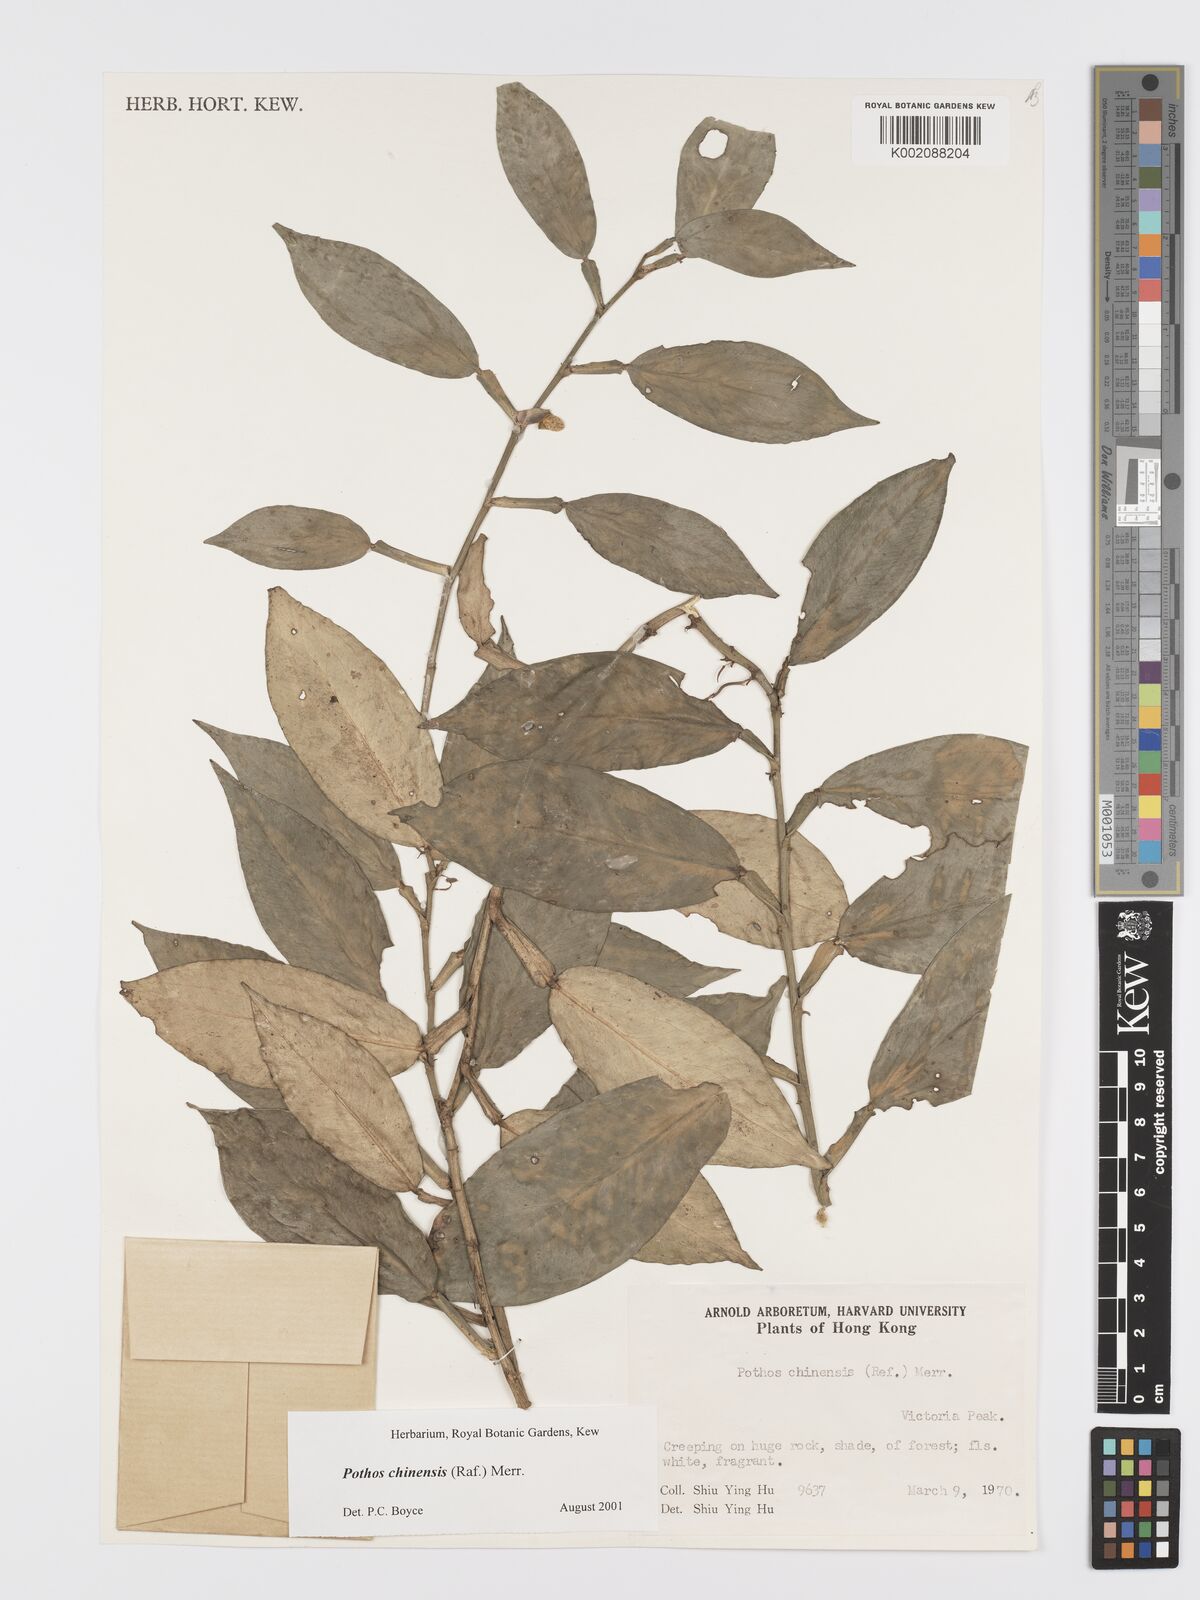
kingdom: Plantae
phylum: Tracheophyta
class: Liliopsida
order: Alismatales
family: Araceae
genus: Pothos
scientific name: Pothos chinensis
